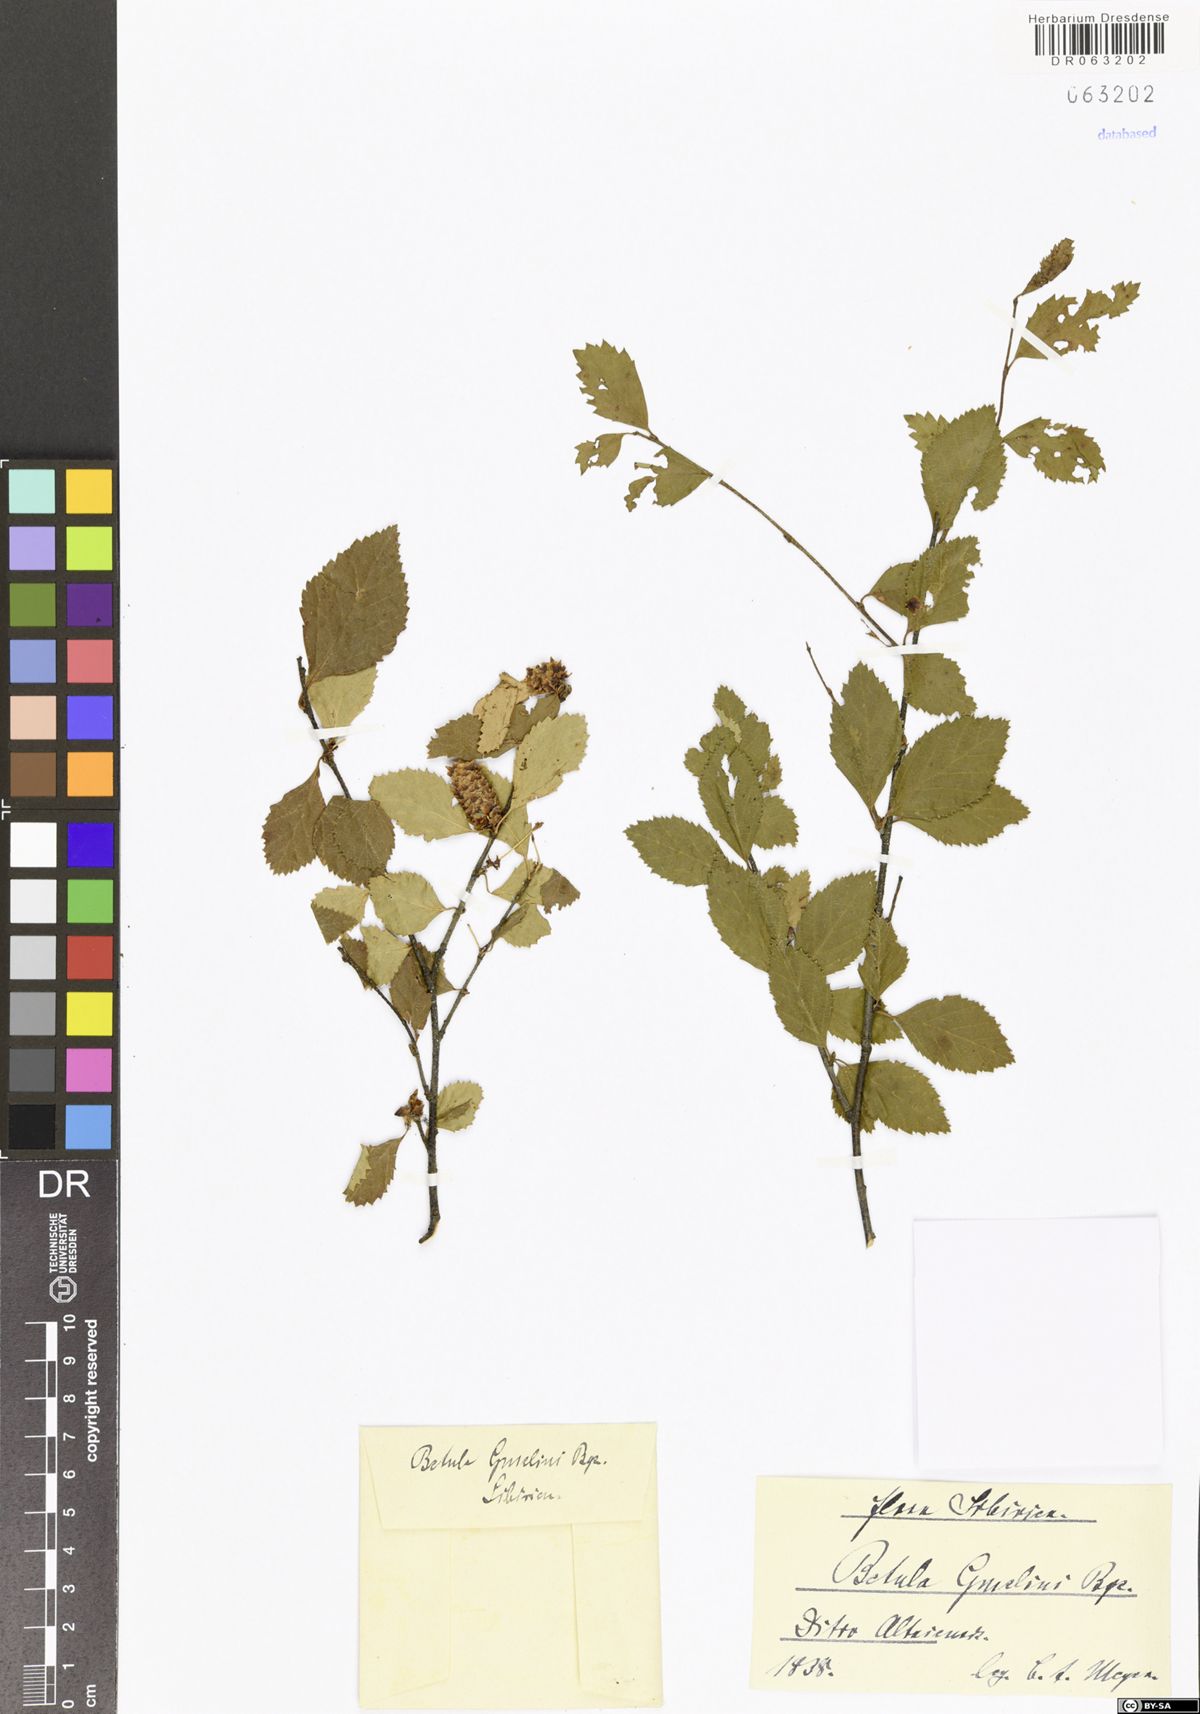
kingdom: Plantae
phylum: Tracheophyta
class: Magnoliopsida
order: Fagales
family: Betulaceae
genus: Betula
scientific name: Betula gmelinii
